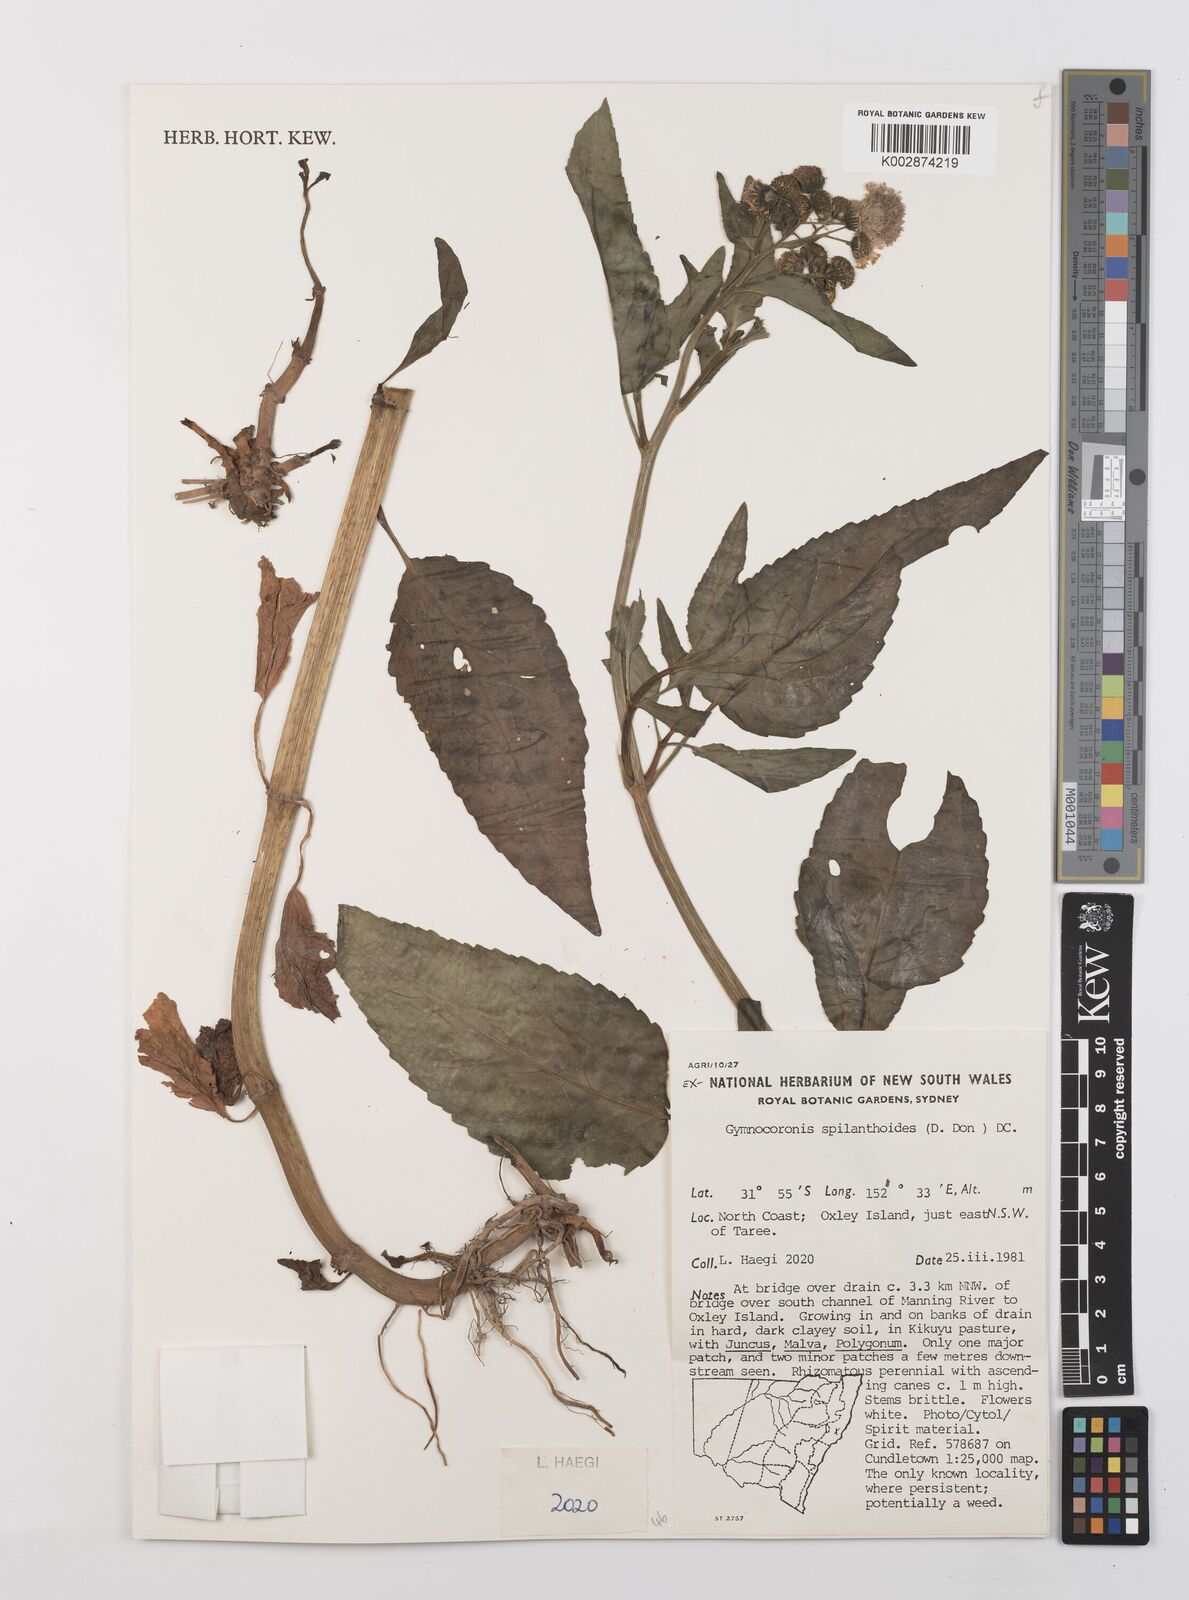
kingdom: Plantae
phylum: Tracheophyta
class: Magnoliopsida
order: Asterales
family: Asteraceae
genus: Gymnocoronis
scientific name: Gymnocoronis spilanthoides
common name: Senegal teaplant
